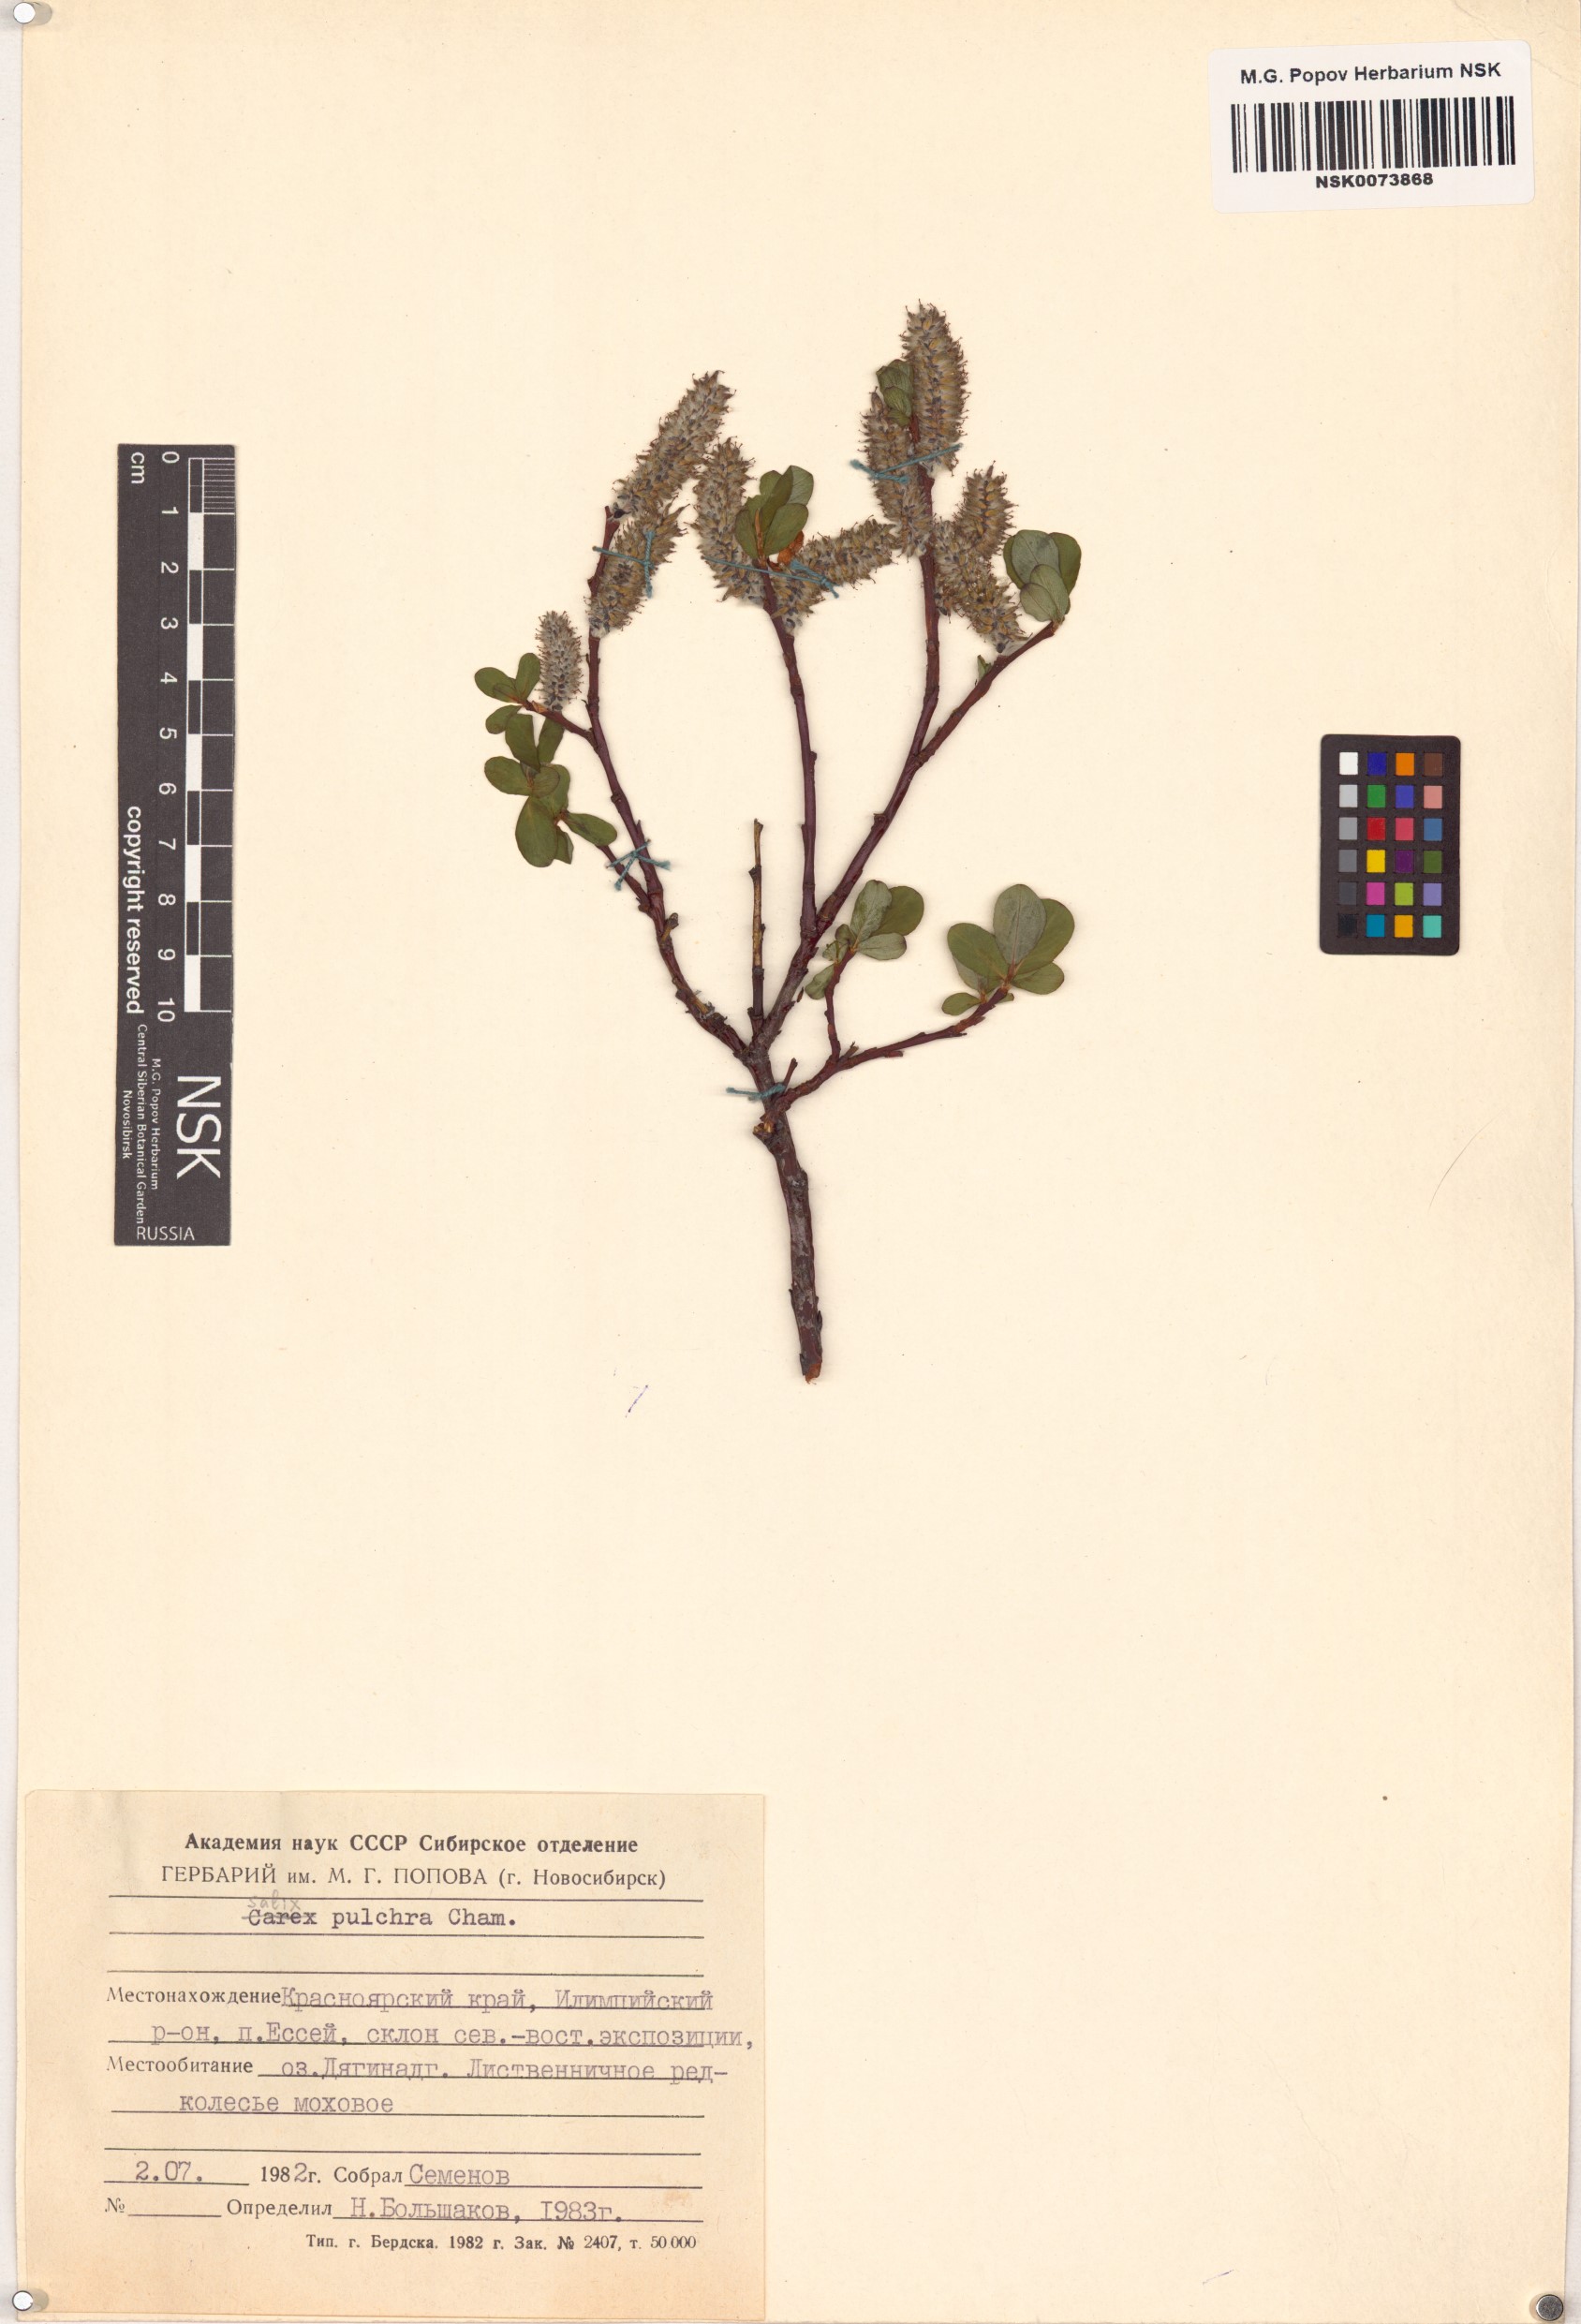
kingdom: Plantae
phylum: Tracheophyta
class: Magnoliopsida
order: Malpighiales
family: Salicaceae
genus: Salix
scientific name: Salix pulchra
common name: Diamond-leaved willow
